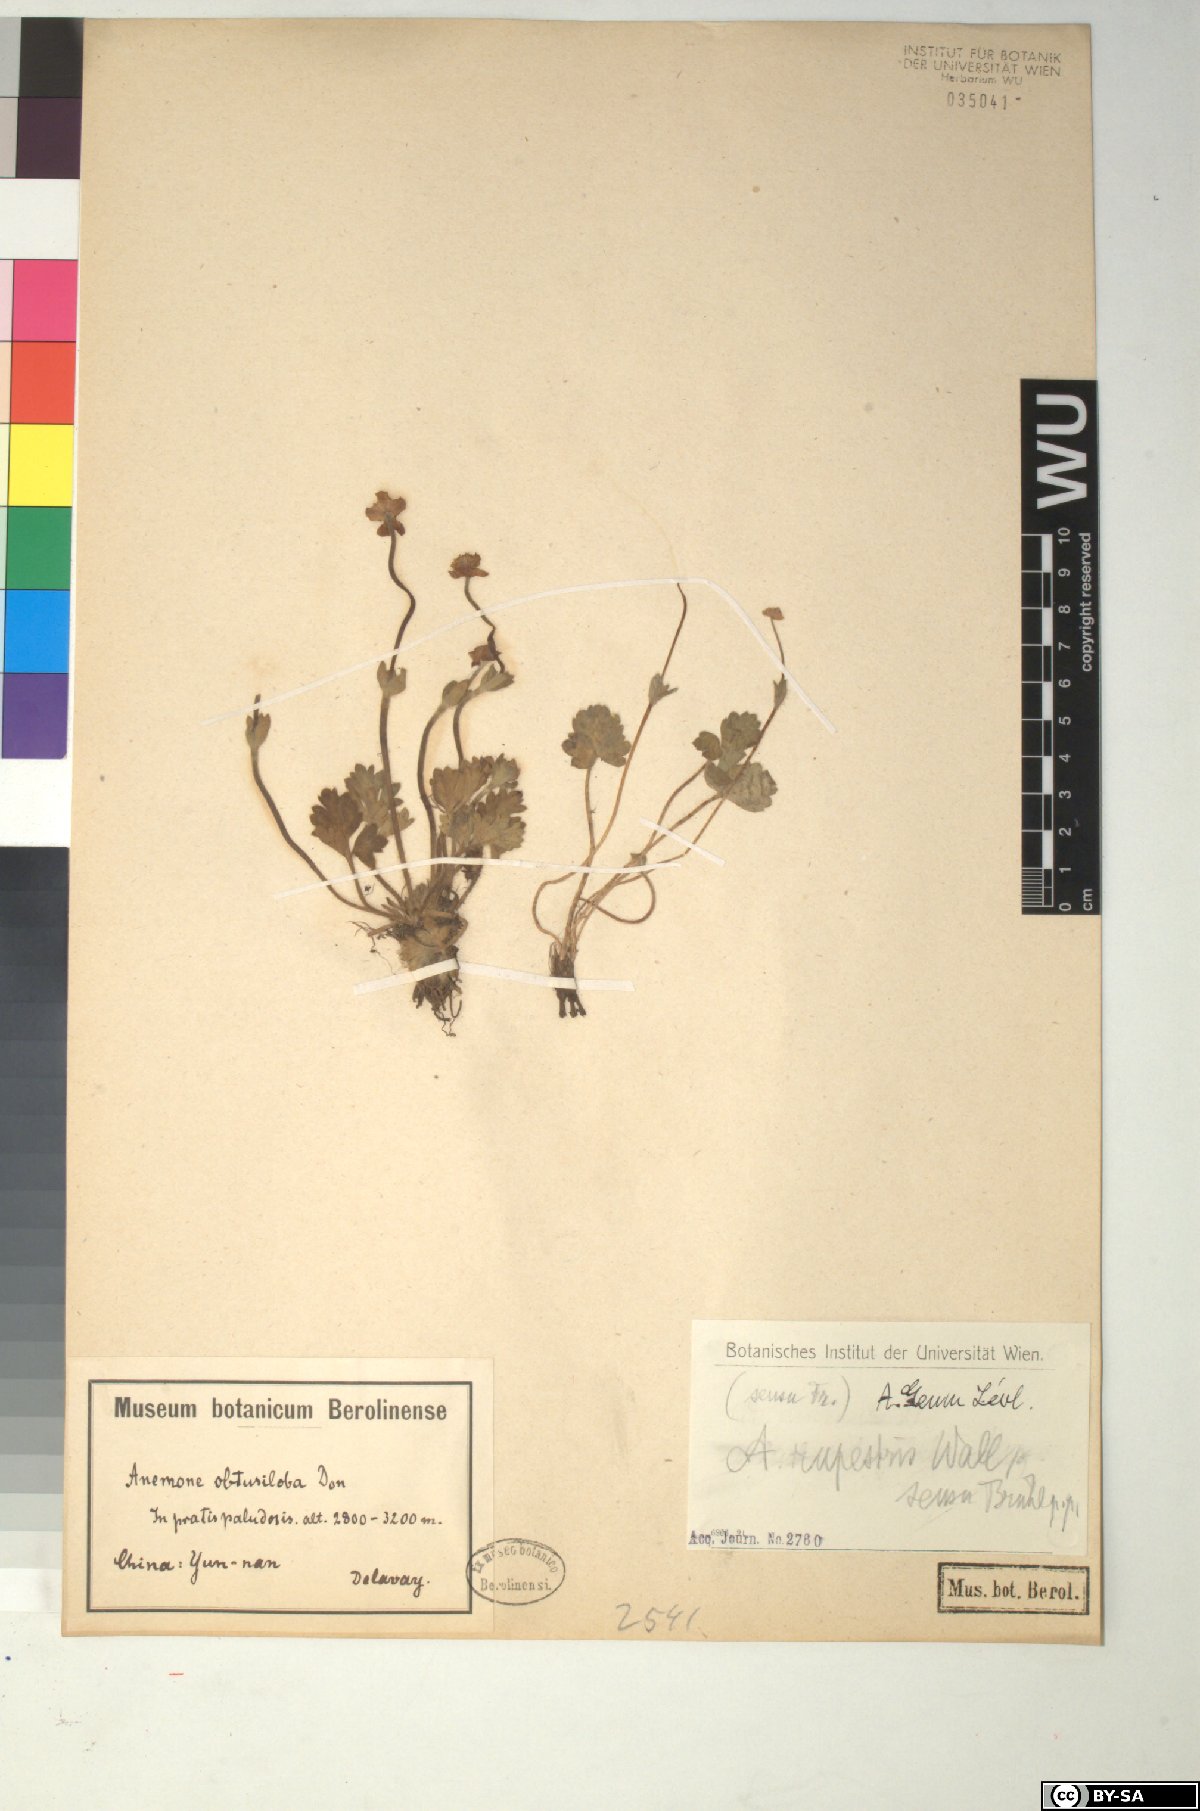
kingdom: Plantae
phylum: Tracheophyta
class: Magnoliopsida
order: Ranunculales
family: Ranunculaceae
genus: Anemonastrum
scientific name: Anemonastrum geum
